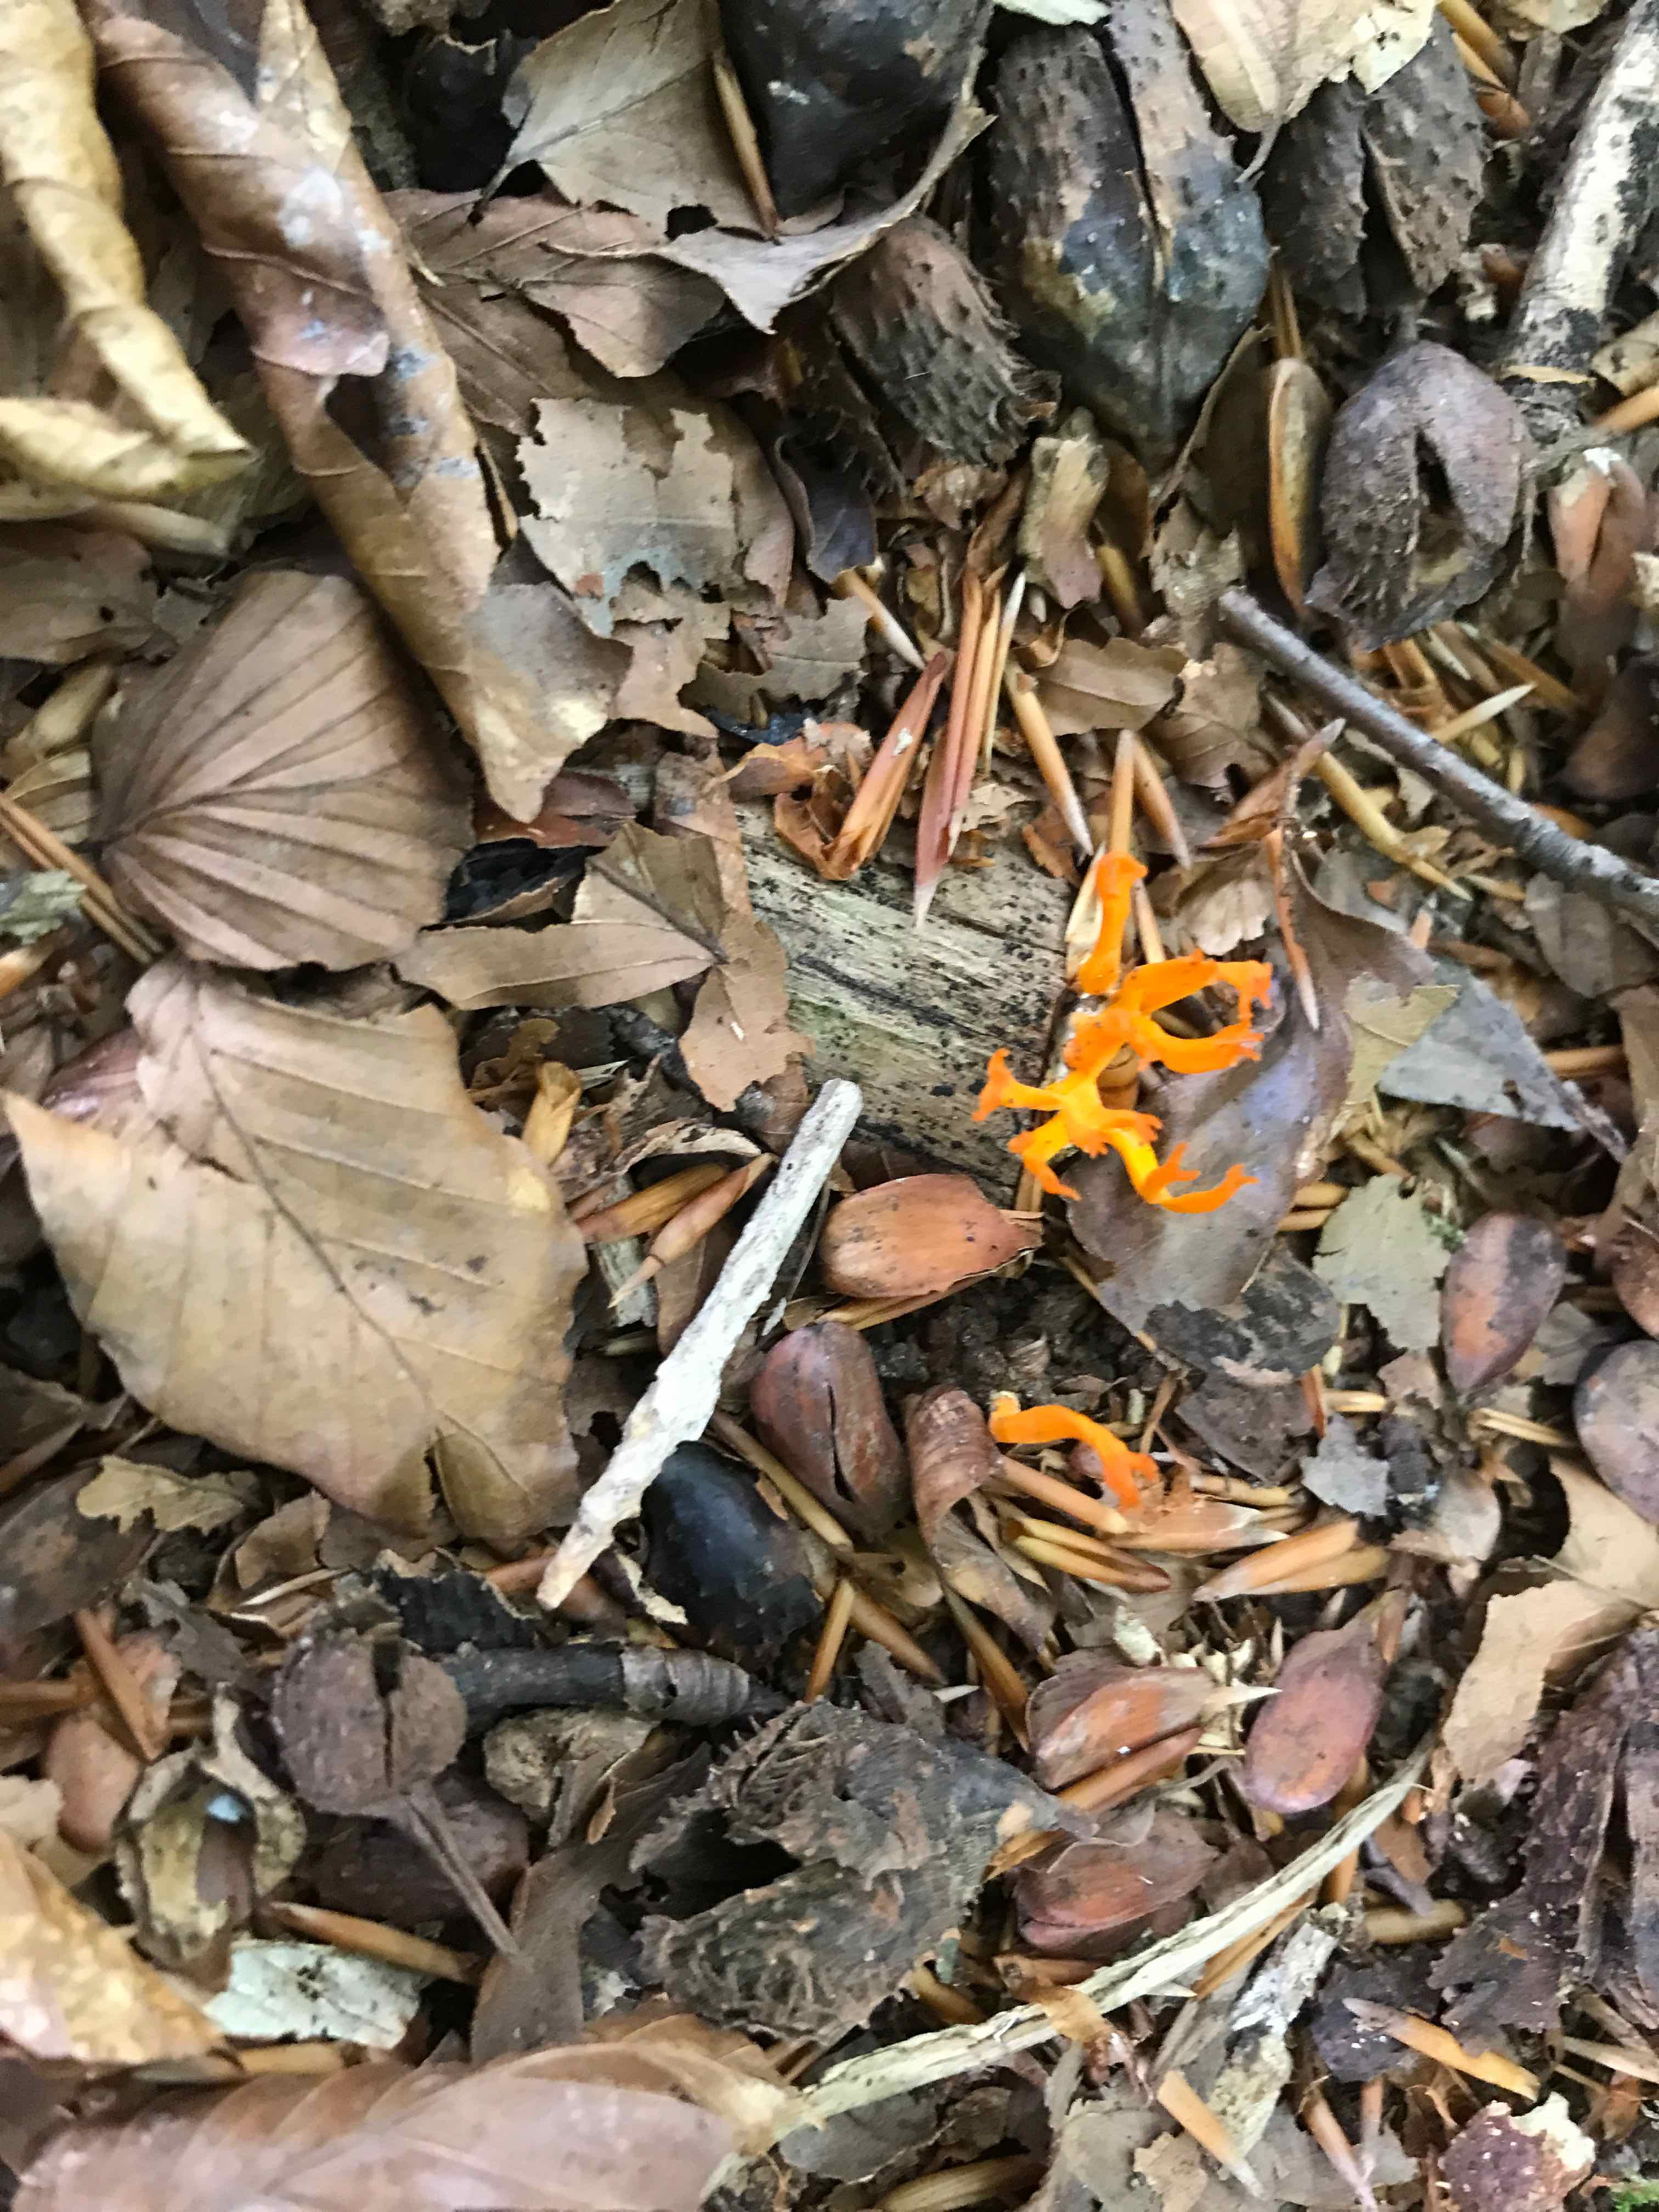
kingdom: Fungi
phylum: Basidiomycota
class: Dacrymycetes
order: Dacrymycetales
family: Dacrymycetaceae
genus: Calocera
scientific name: Calocera viscosa
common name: almindelig guldgaffel
